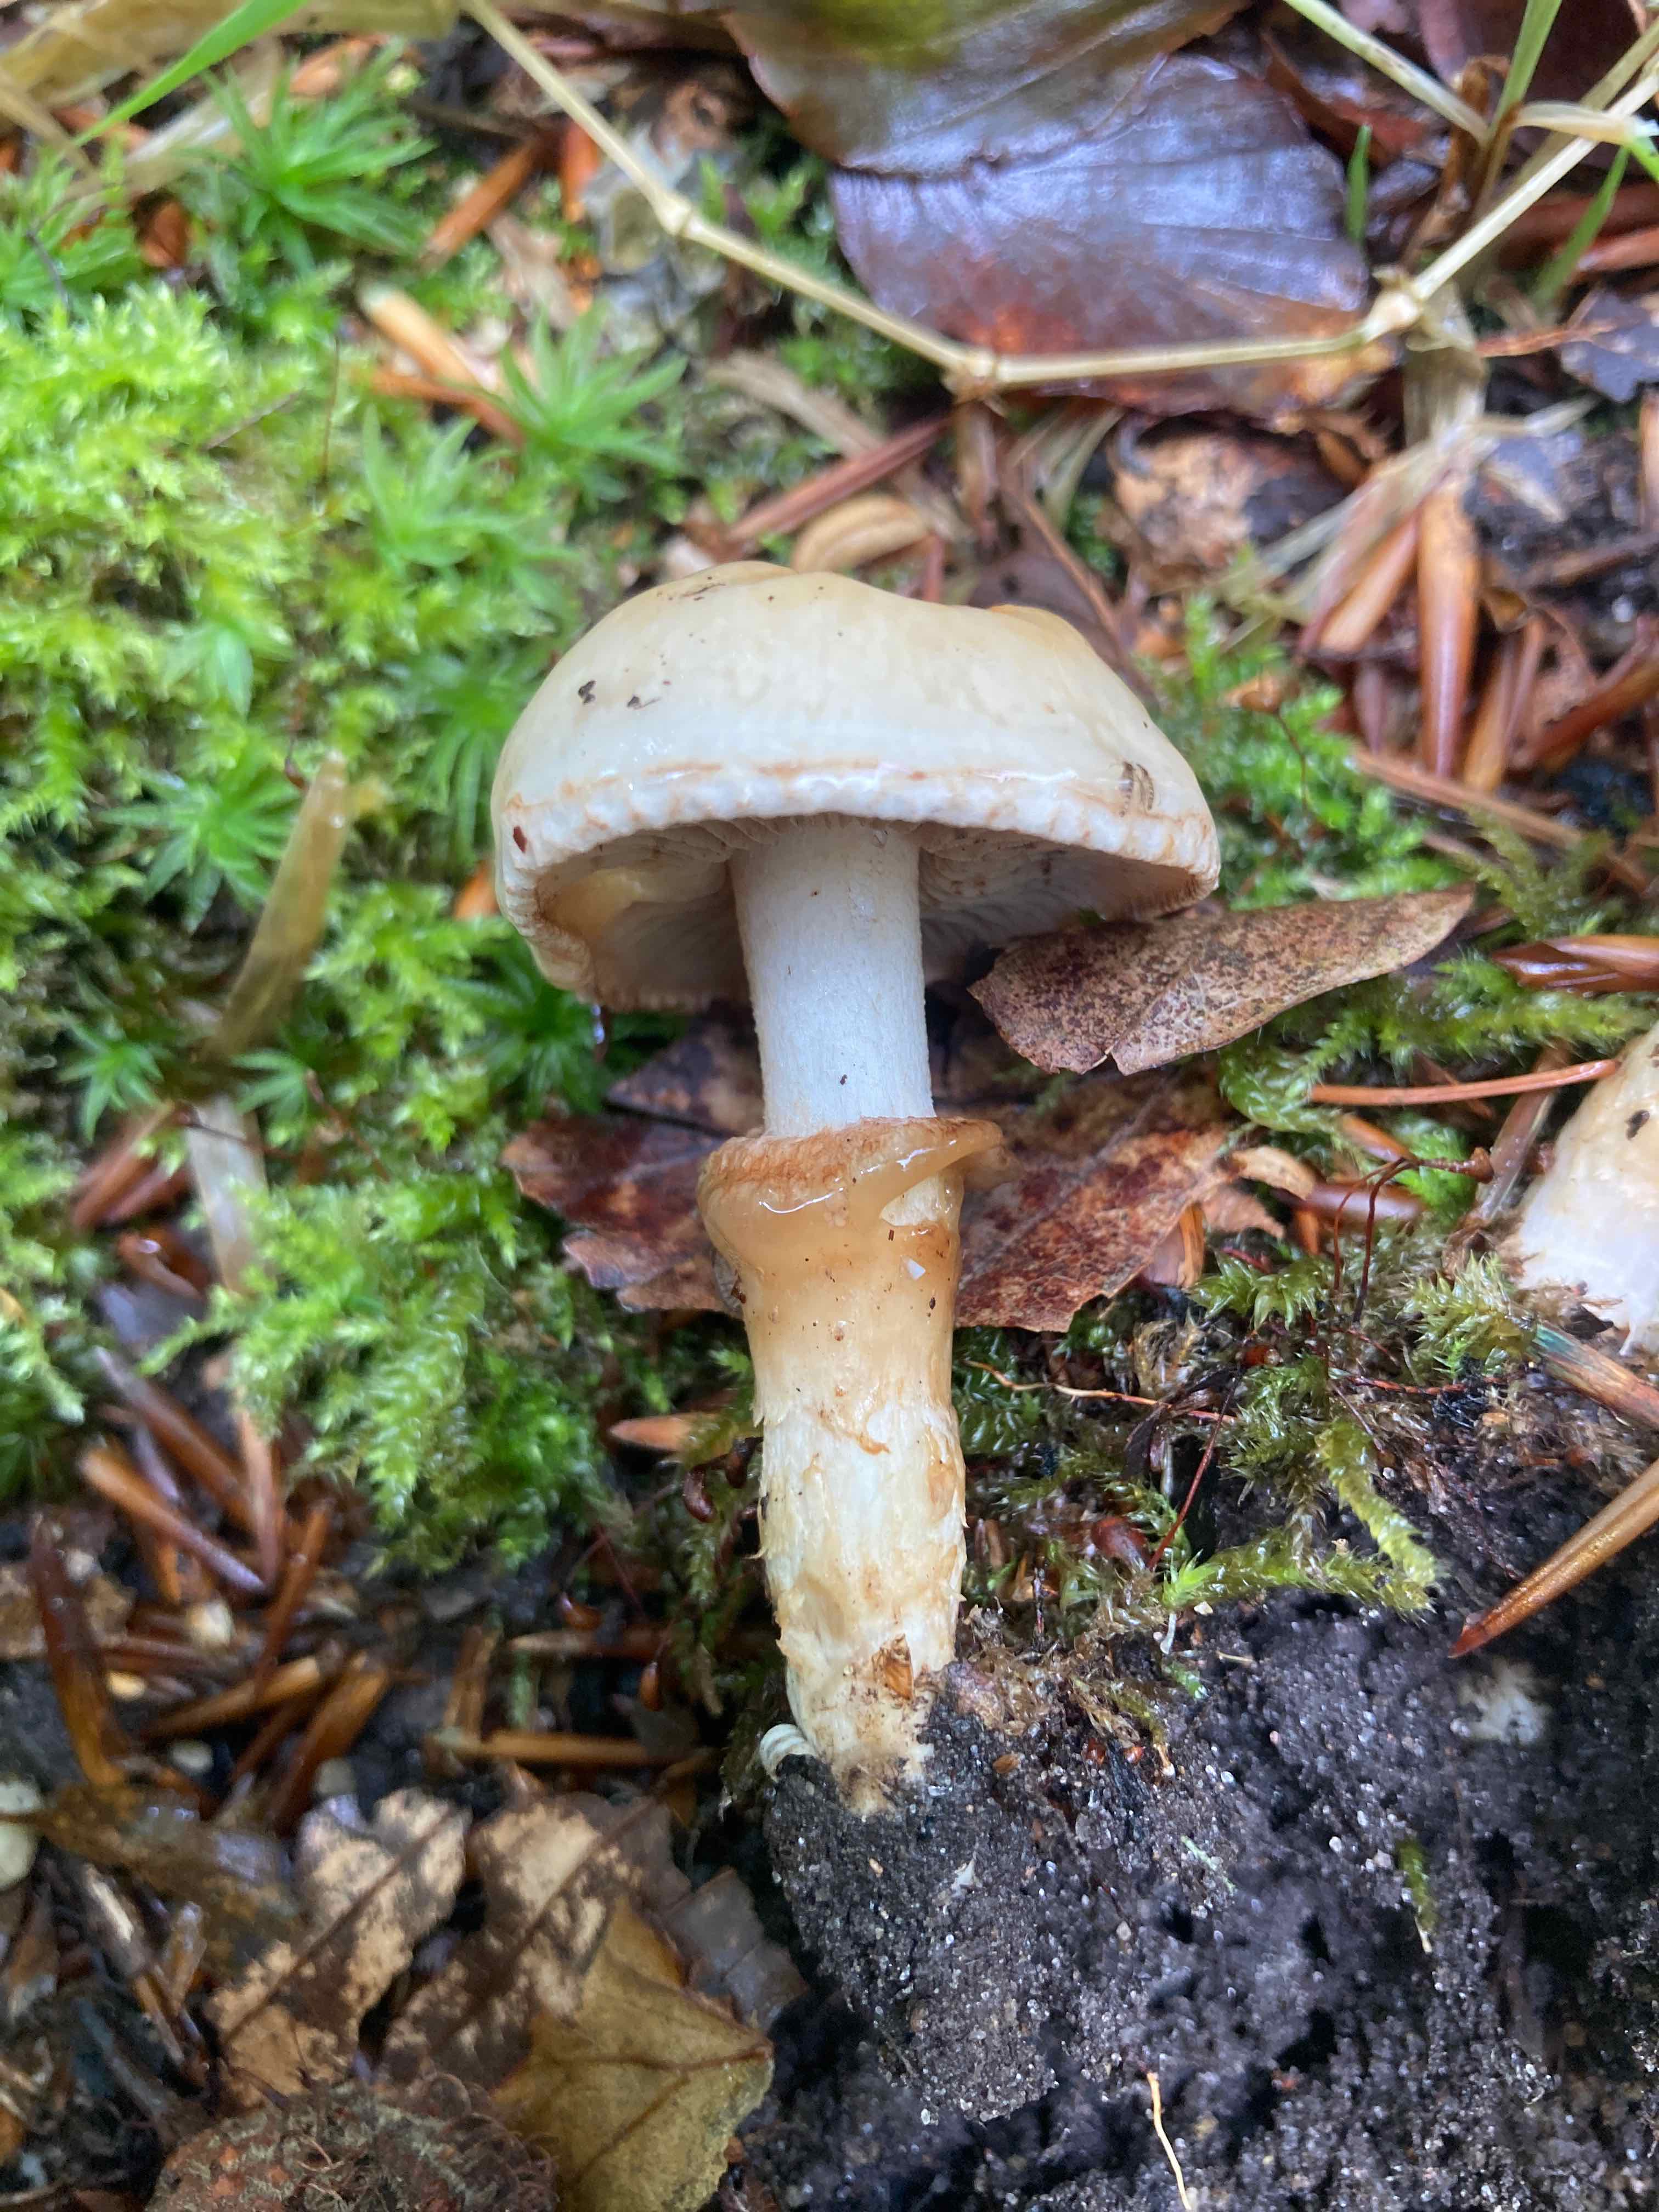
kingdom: Fungi
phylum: Basidiomycota
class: Agaricomycetes
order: Agaricales
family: Hymenogastraceae
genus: Hebeloma
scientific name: Hebeloma radicosum
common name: pælerods-tåreblad
